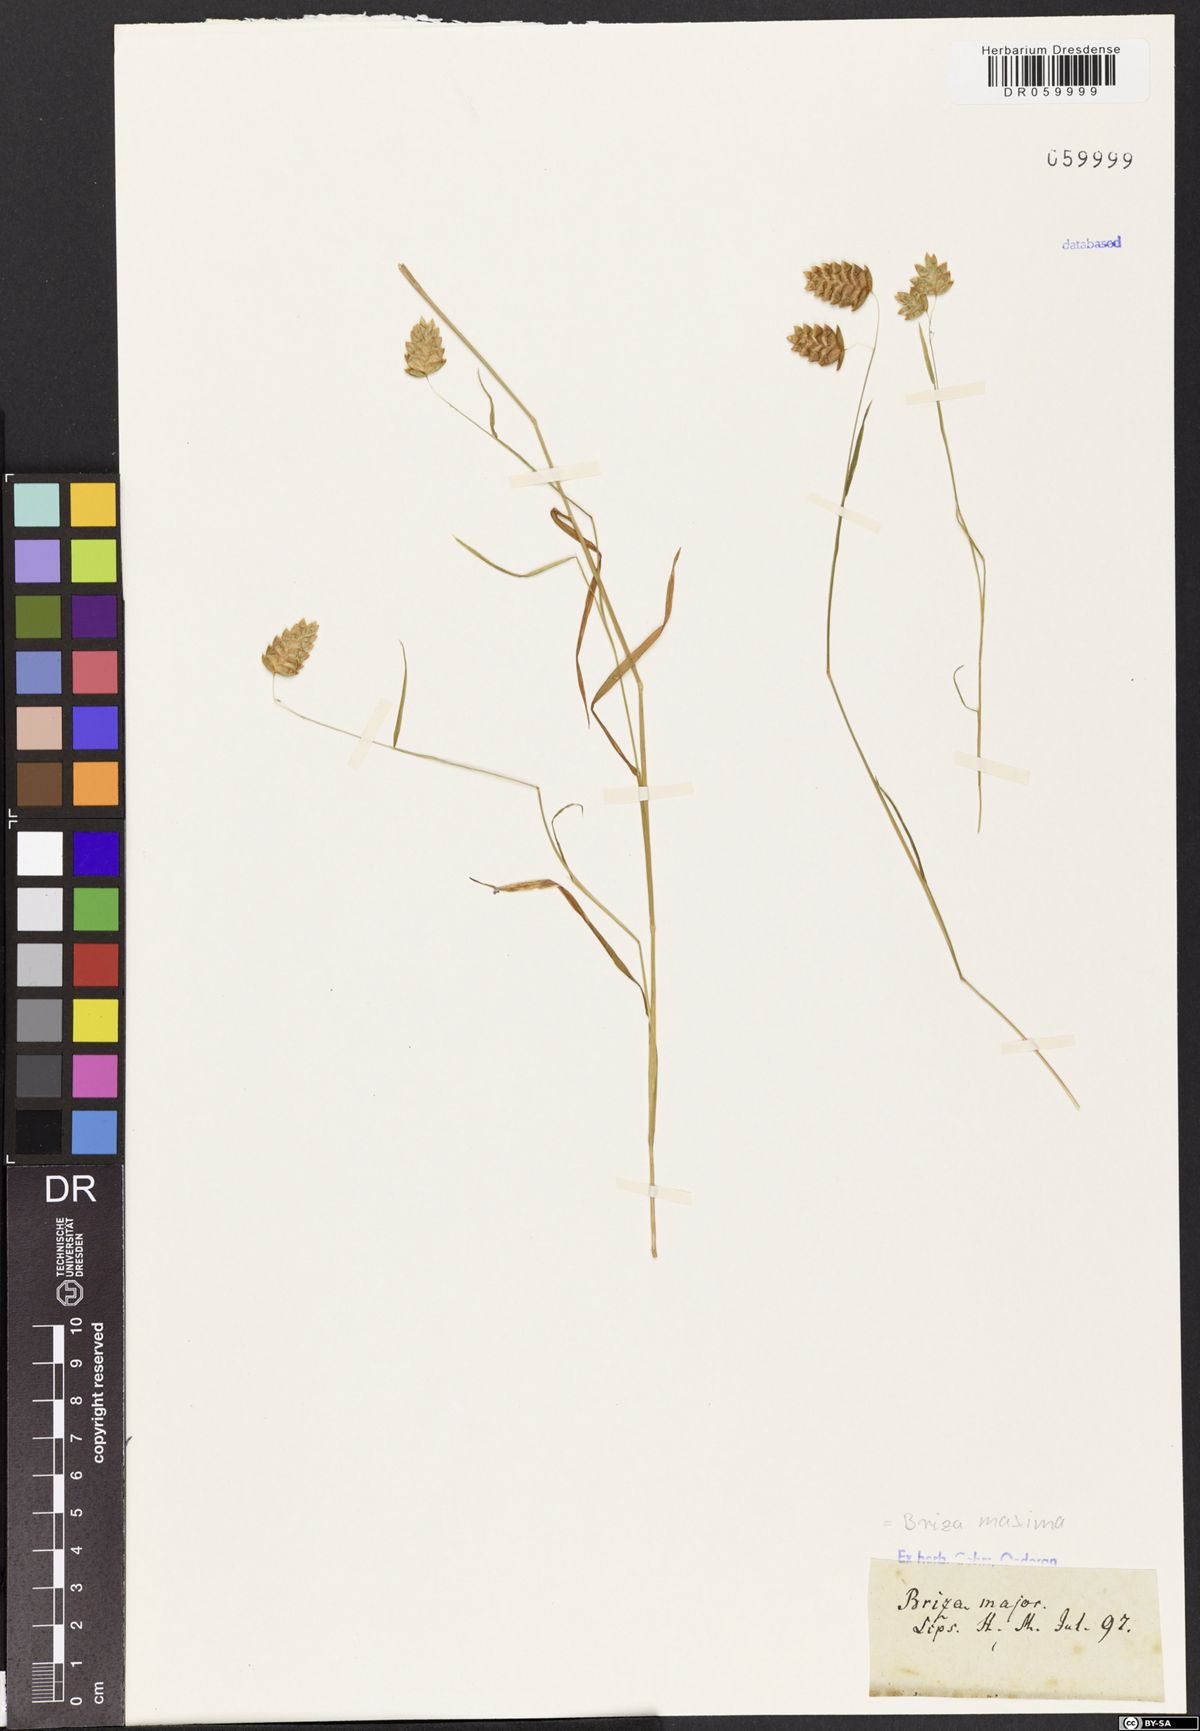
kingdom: Plantae
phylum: Tracheophyta
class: Liliopsida
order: Poales
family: Poaceae
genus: Briza
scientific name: Briza maxima
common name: Big quakinggrass
